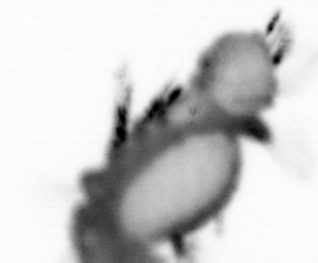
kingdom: Animalia
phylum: Annelida
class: Polychaeta
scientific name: Polychaeta
